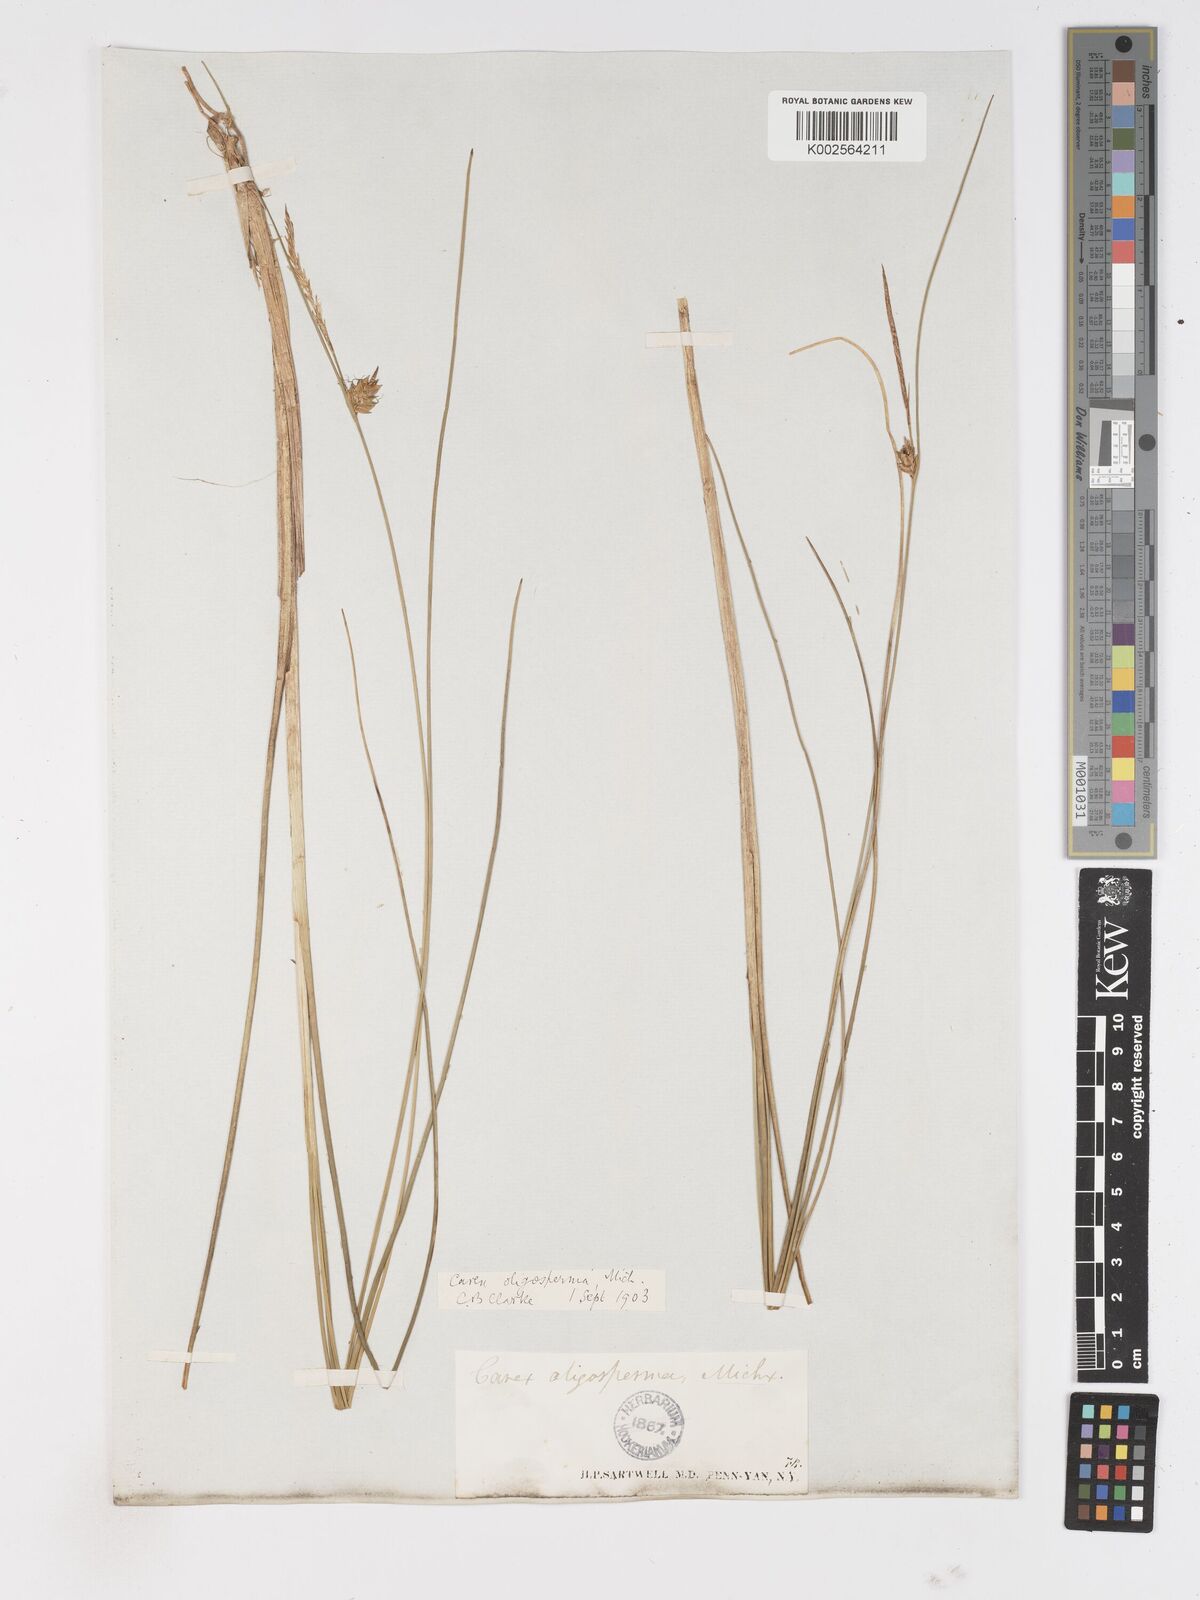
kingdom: Plantae
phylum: Tracheophyta
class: Liliopsida
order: Poales
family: Cyperaceae
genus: Carex
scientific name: Carex oligosperma
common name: Few-seed sedge
